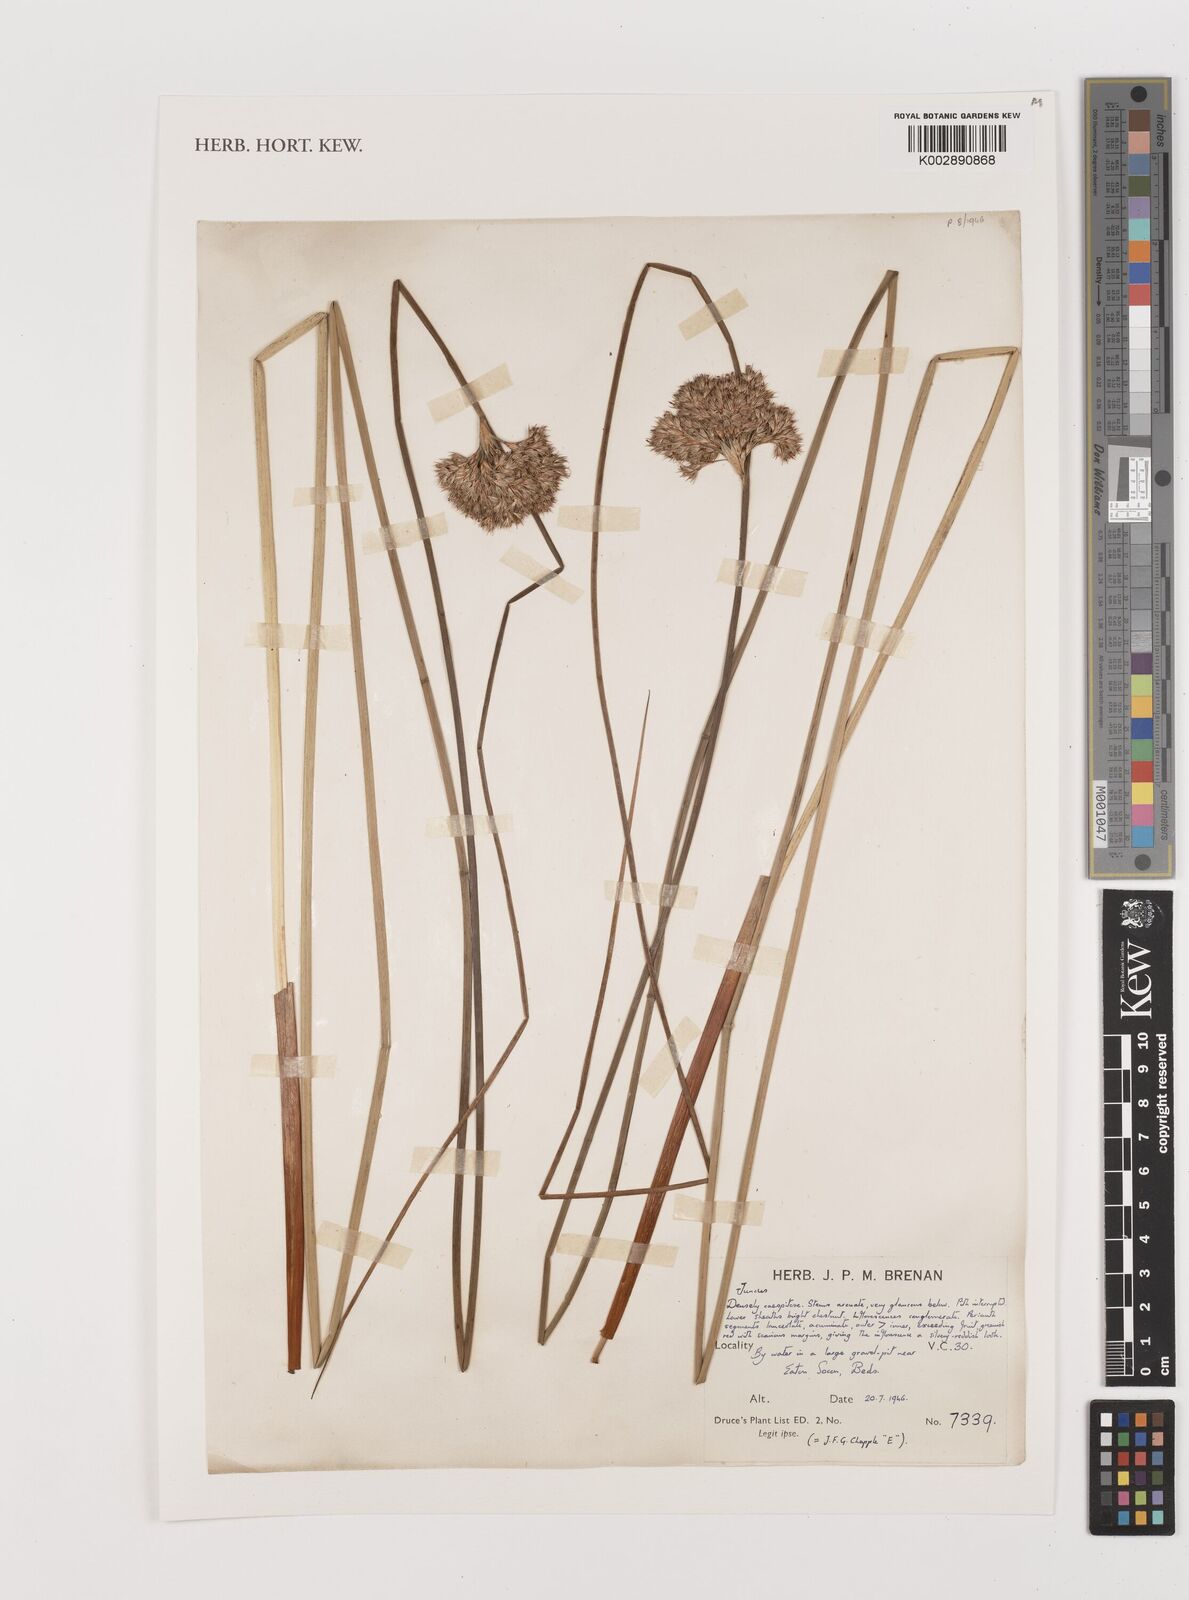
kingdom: Plantae
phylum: Tracheophyta
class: Liliopsida
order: Poales
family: Juncaceae
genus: Juncus
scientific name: Juncus
